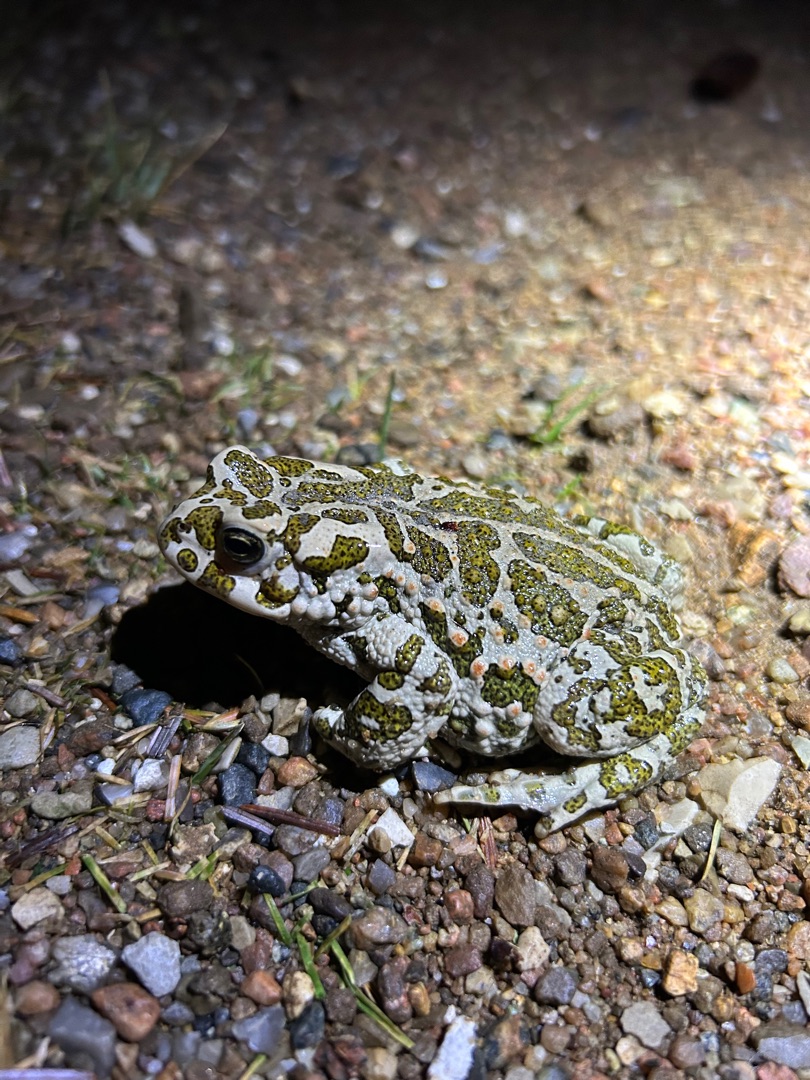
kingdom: Animalia
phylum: Chordata
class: Amphibia
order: Anura
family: Bufonidae
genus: Bufotes
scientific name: Bufotes viridis
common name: Grønbroget tudse
